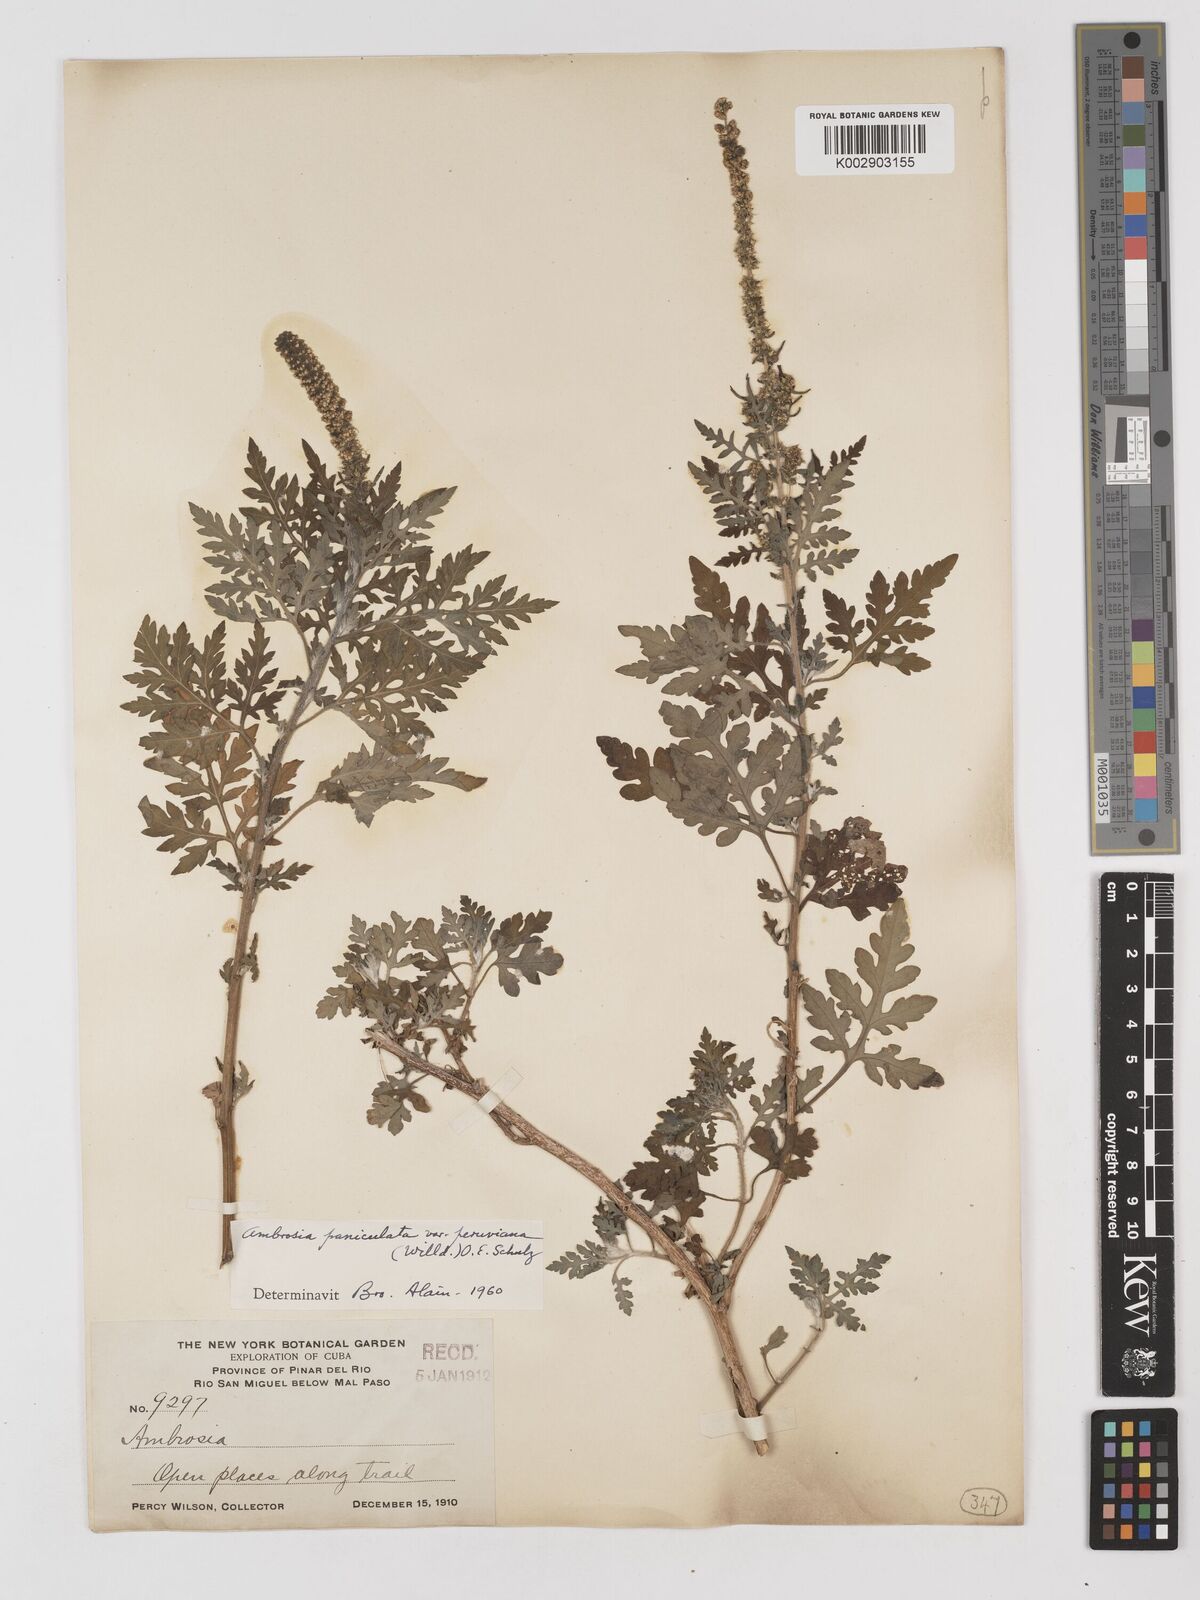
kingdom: Plantae
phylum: Tracheophyta
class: Magnoliopsida
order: Asterales
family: Asteraceae
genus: Ambrosia
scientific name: Ambrosia cumanensis
